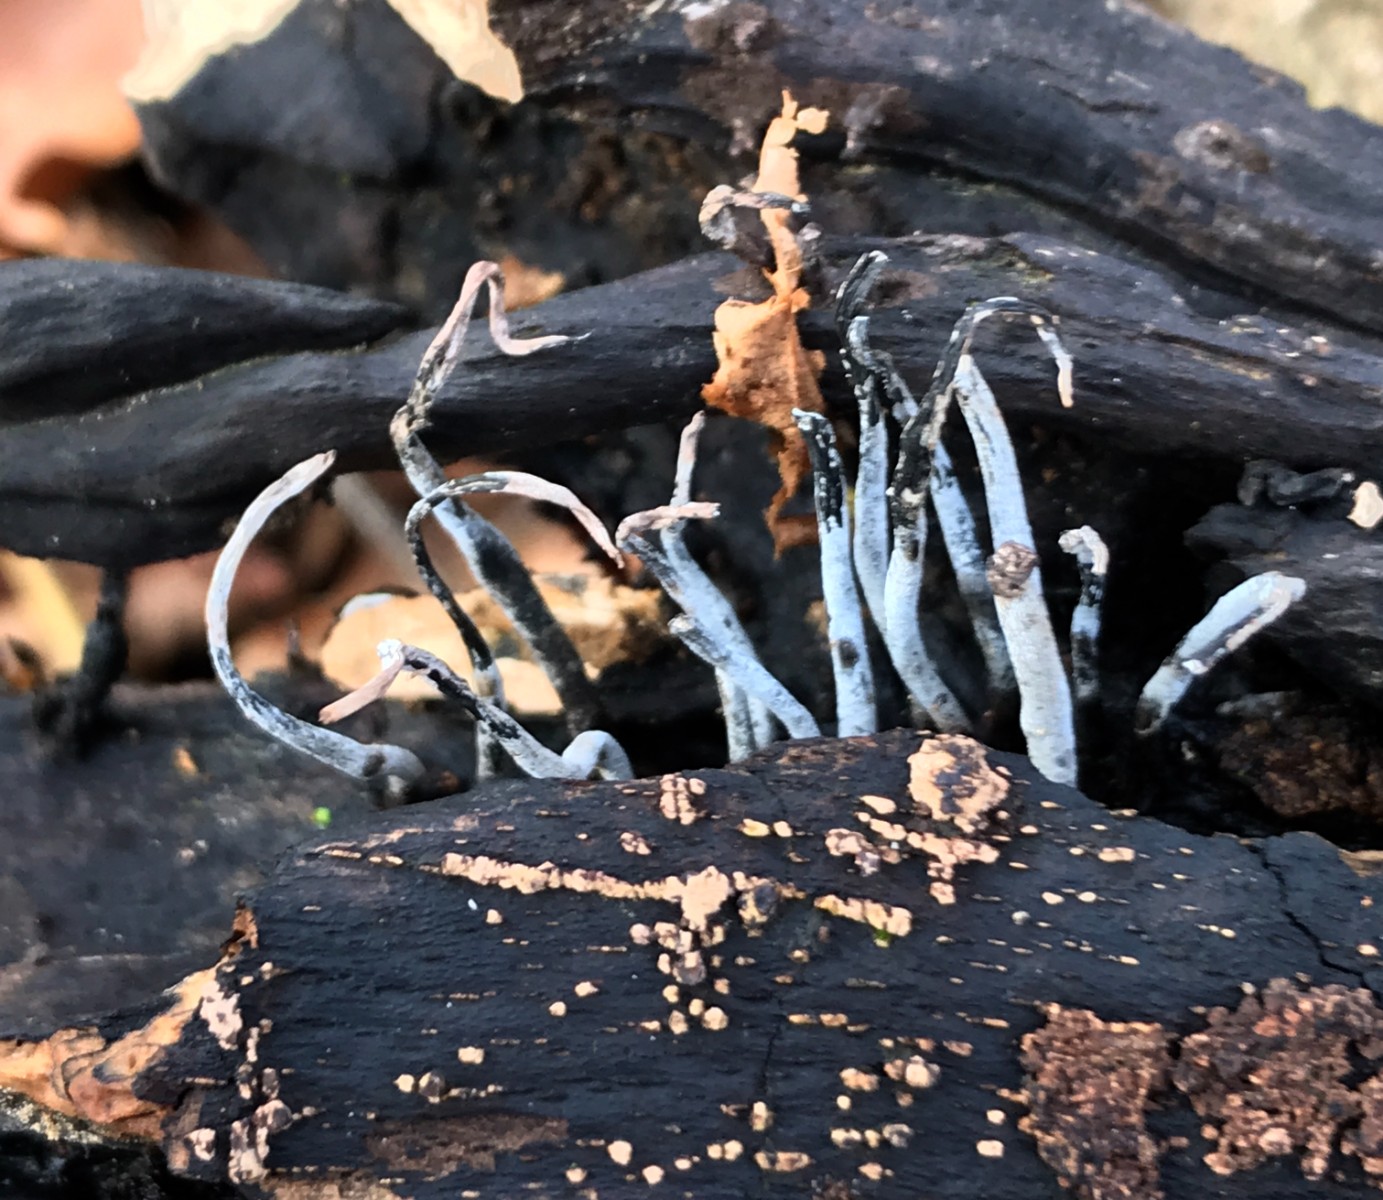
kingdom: Fungi
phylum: Ascomycota
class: Sordariomycetes
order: Xylariales
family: Xylariaceae
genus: Xylaria
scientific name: Xylaria hypoxylon
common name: grenet stødsvamp
